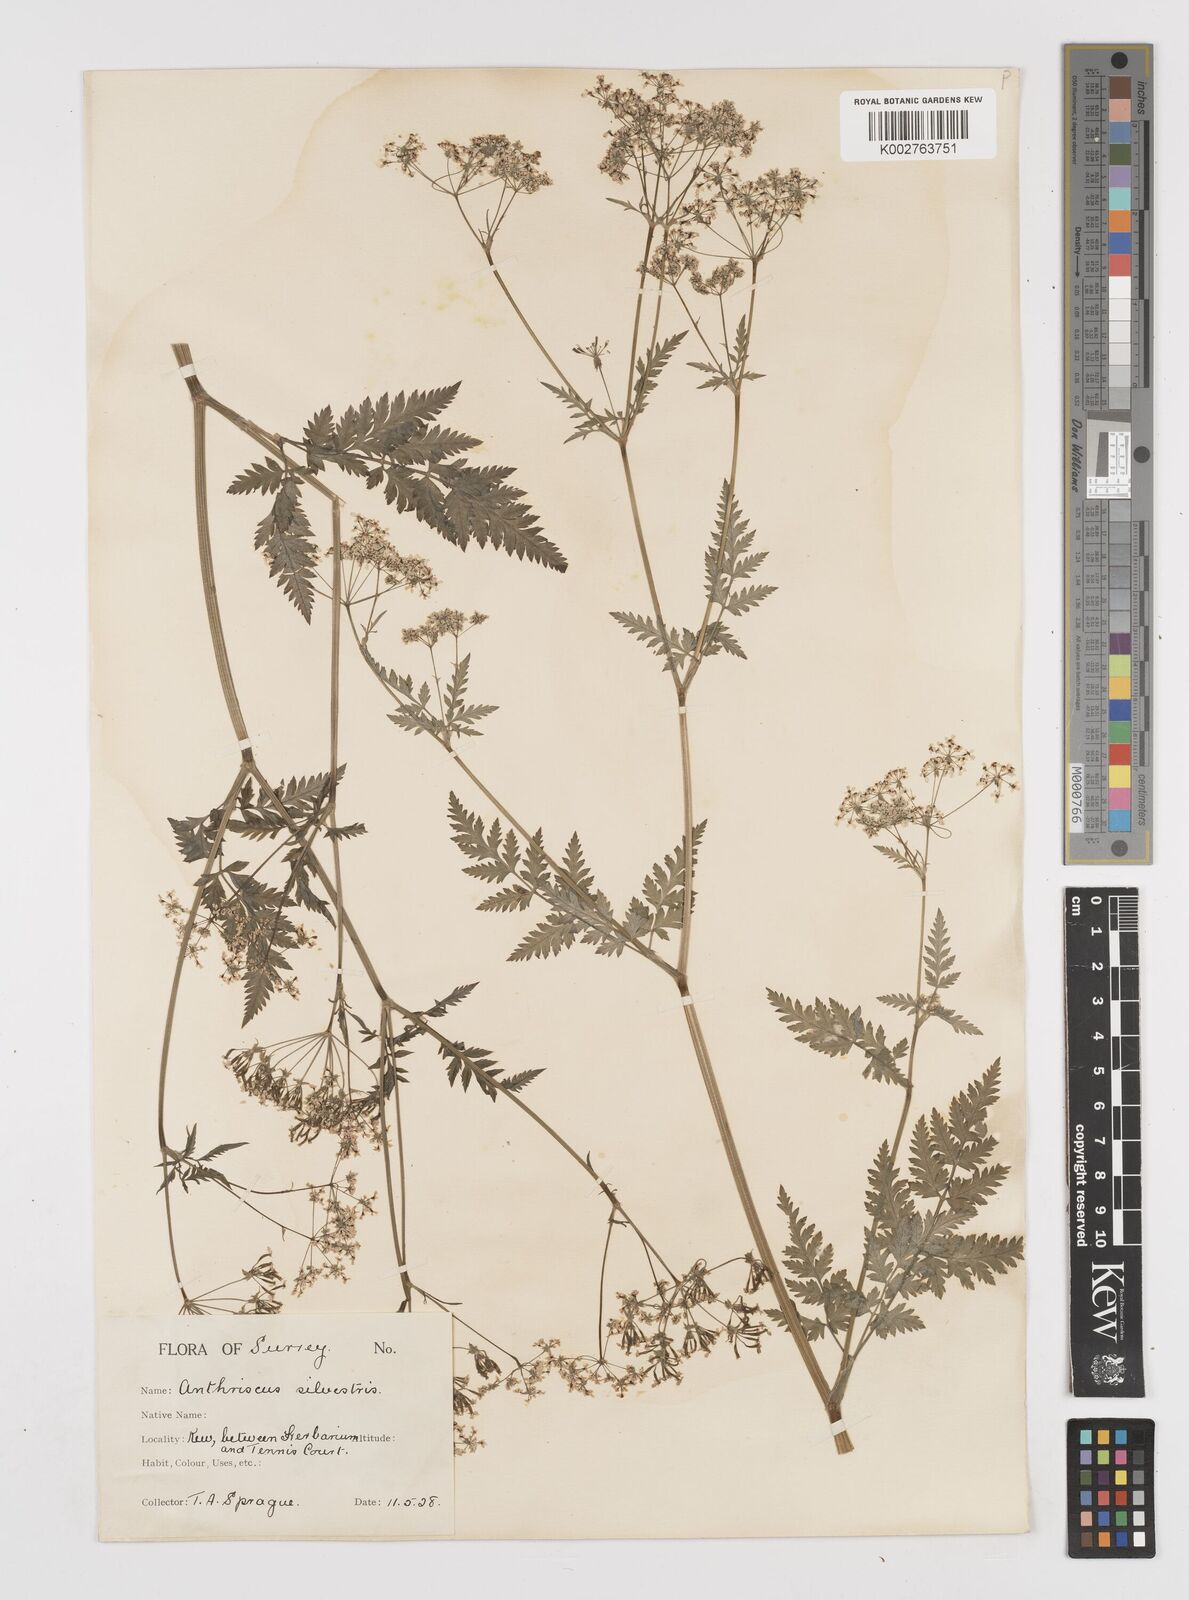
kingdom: Plantae
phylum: Tracheophyta
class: Magnoliopsida
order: Apiales
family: Apiaceae
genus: Anthriscus
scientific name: Anthriscus sylvestris
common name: Cow parsley
